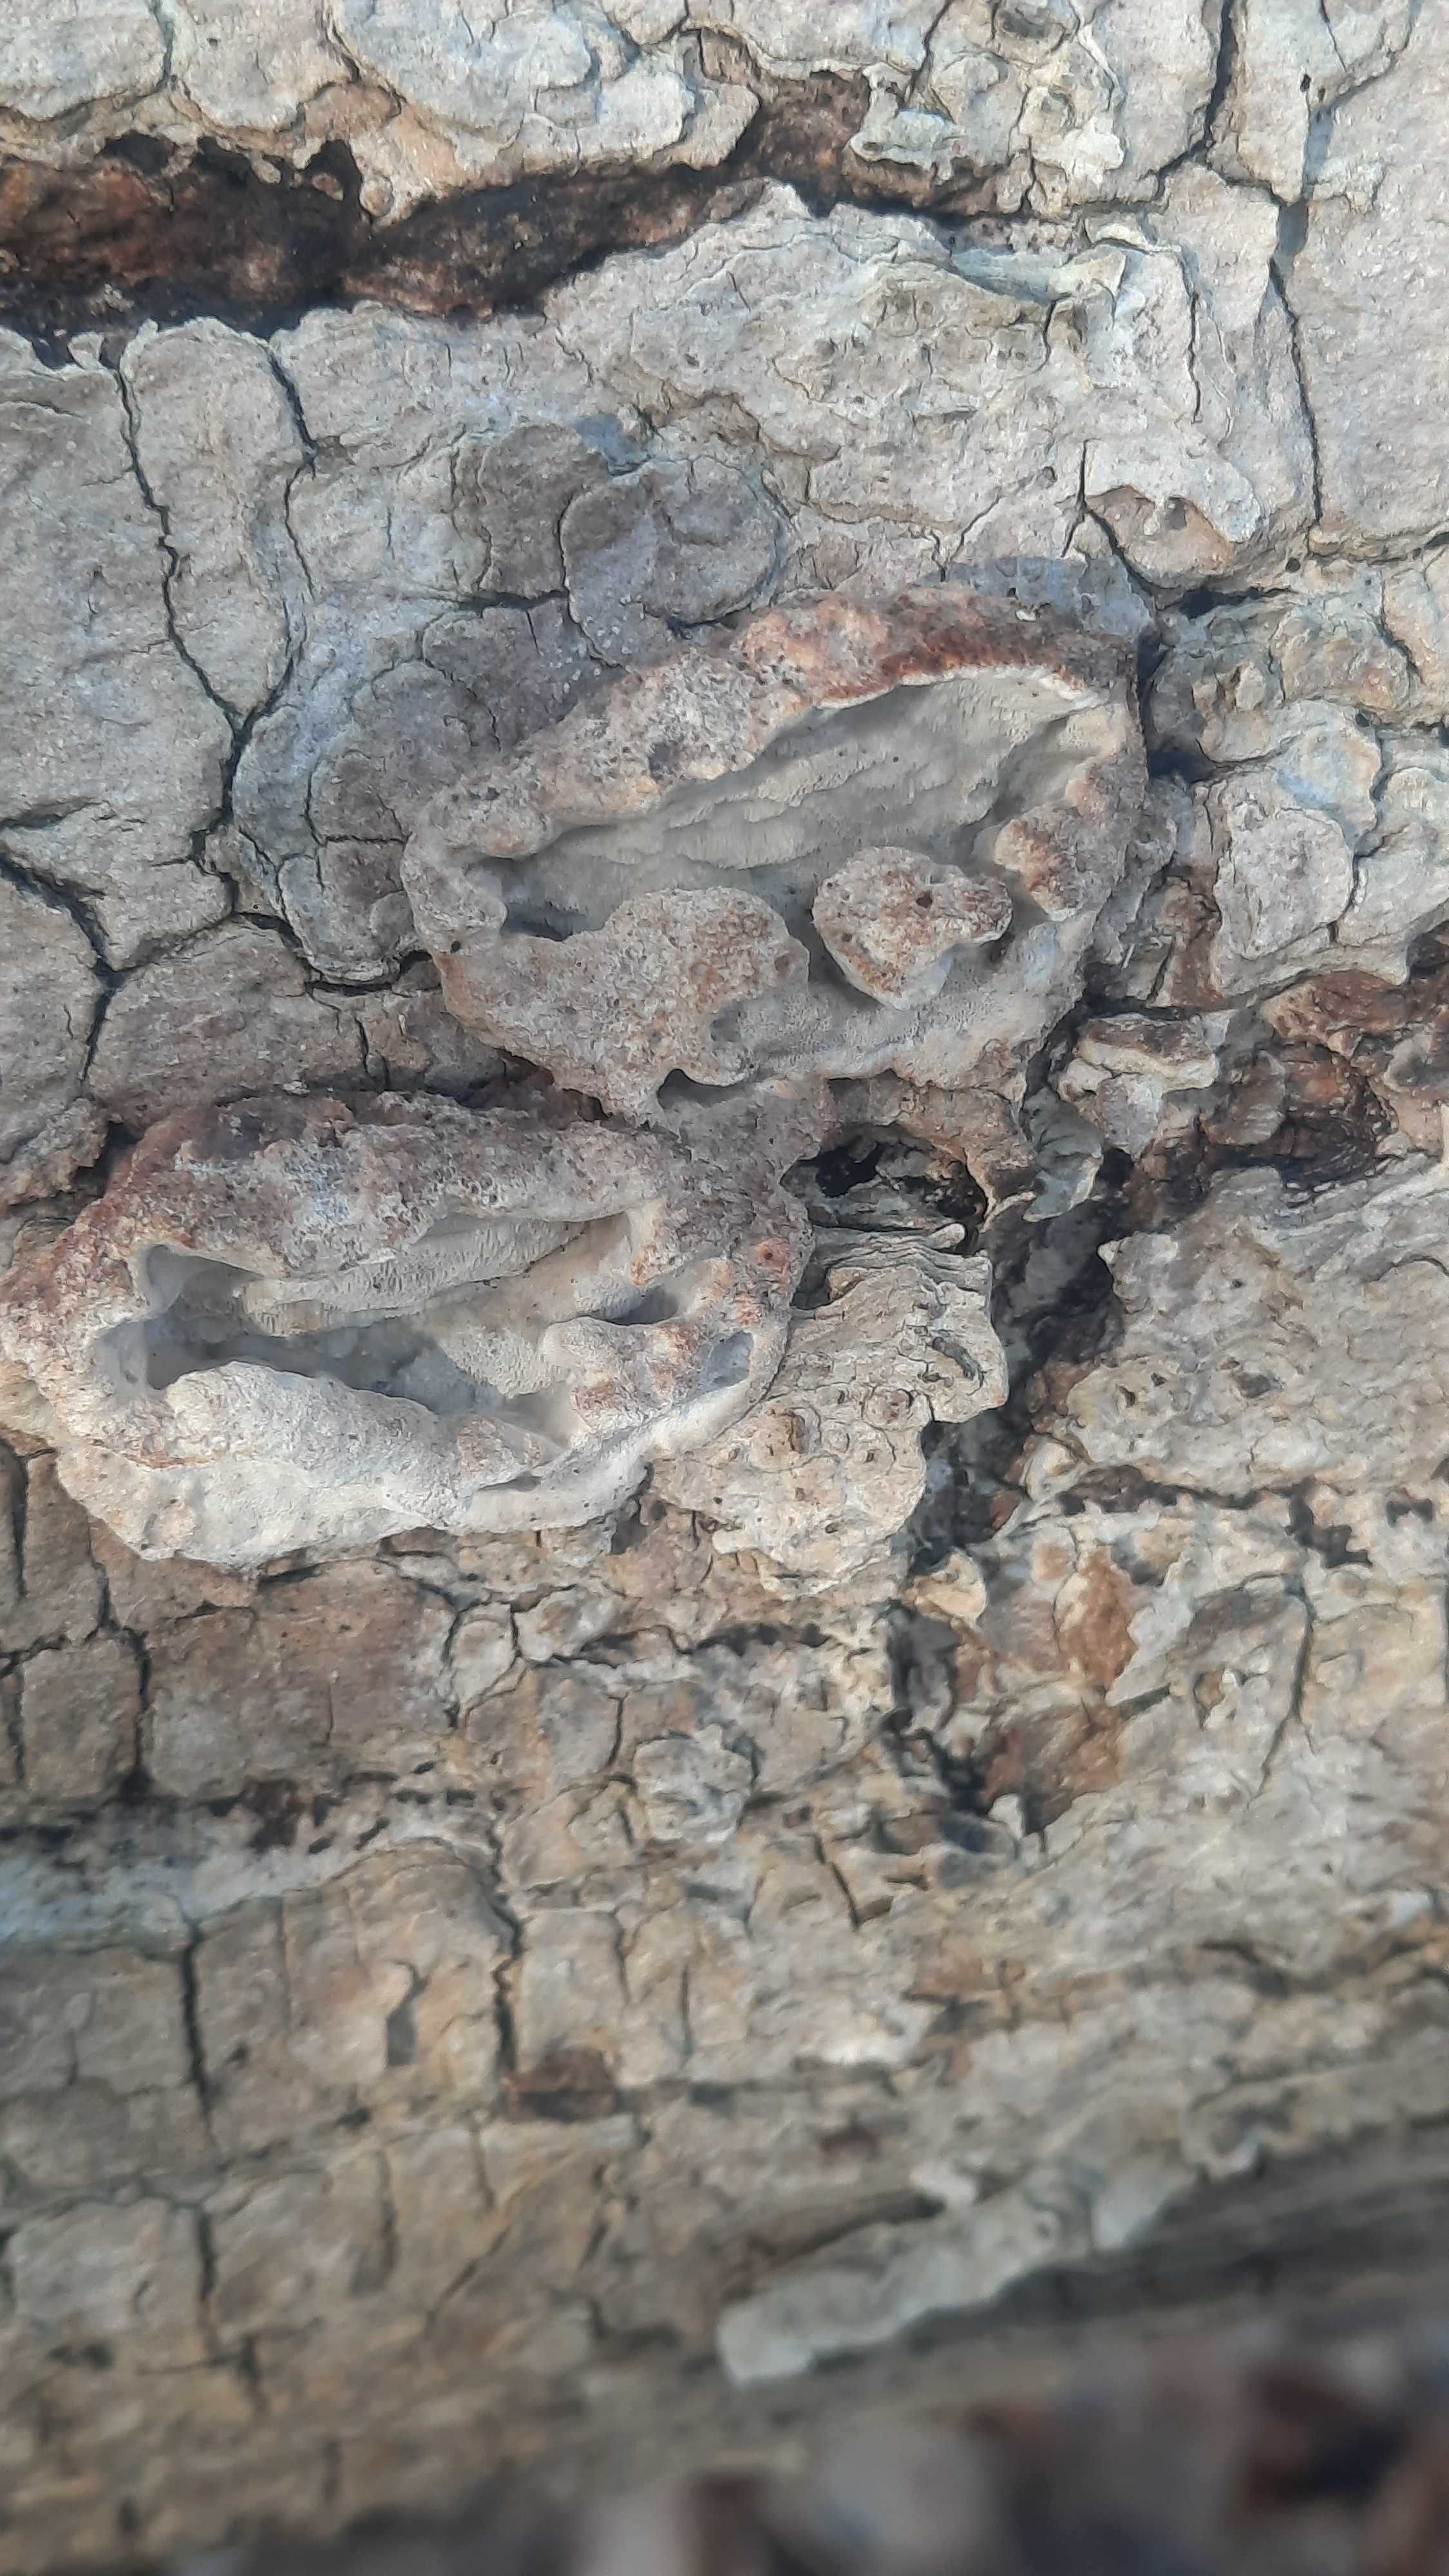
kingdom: Fungi
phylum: Basidiomycota
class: Agaricomycetes
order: Polyporales
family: Incrustoporiaceae
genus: Skeletocutis
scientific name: Skeletocutis nemoralis
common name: stor krystalporesvamp
